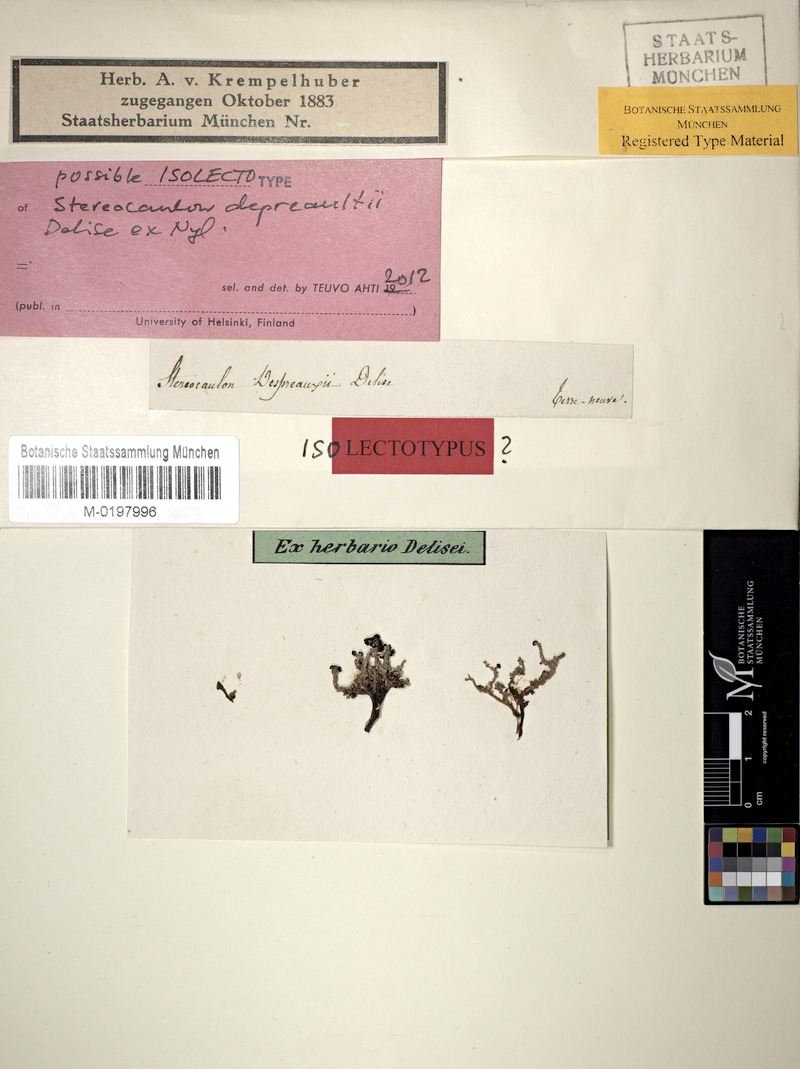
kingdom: Fungi
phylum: Ascomycota
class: Lecanoromycetes
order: Lecanorales
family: Stereocaulaceae
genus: Stereocaulon
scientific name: Stereocaulon depreaultii
